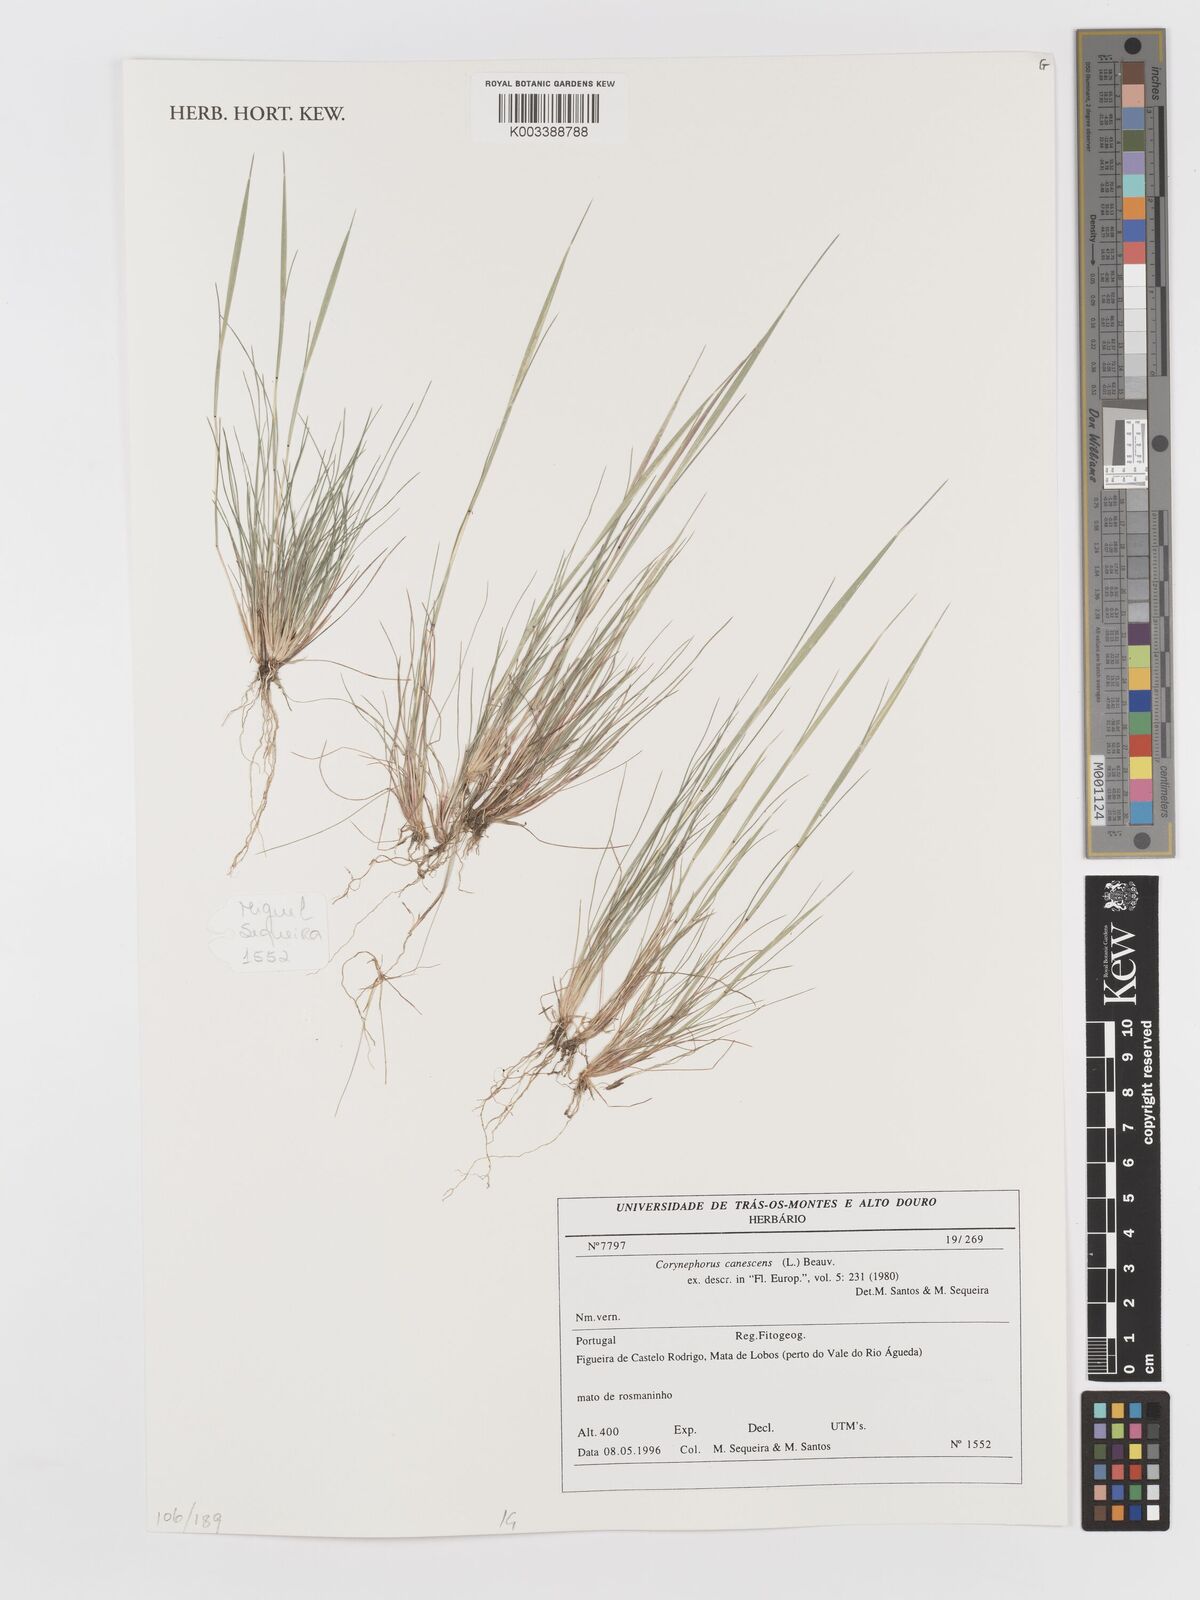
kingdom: Plantae
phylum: Tracheophyta
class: Liliopsida
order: Poales
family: Poaceae
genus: Corynephorus
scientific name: Corynephorus canescens
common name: Grey hair-grass
